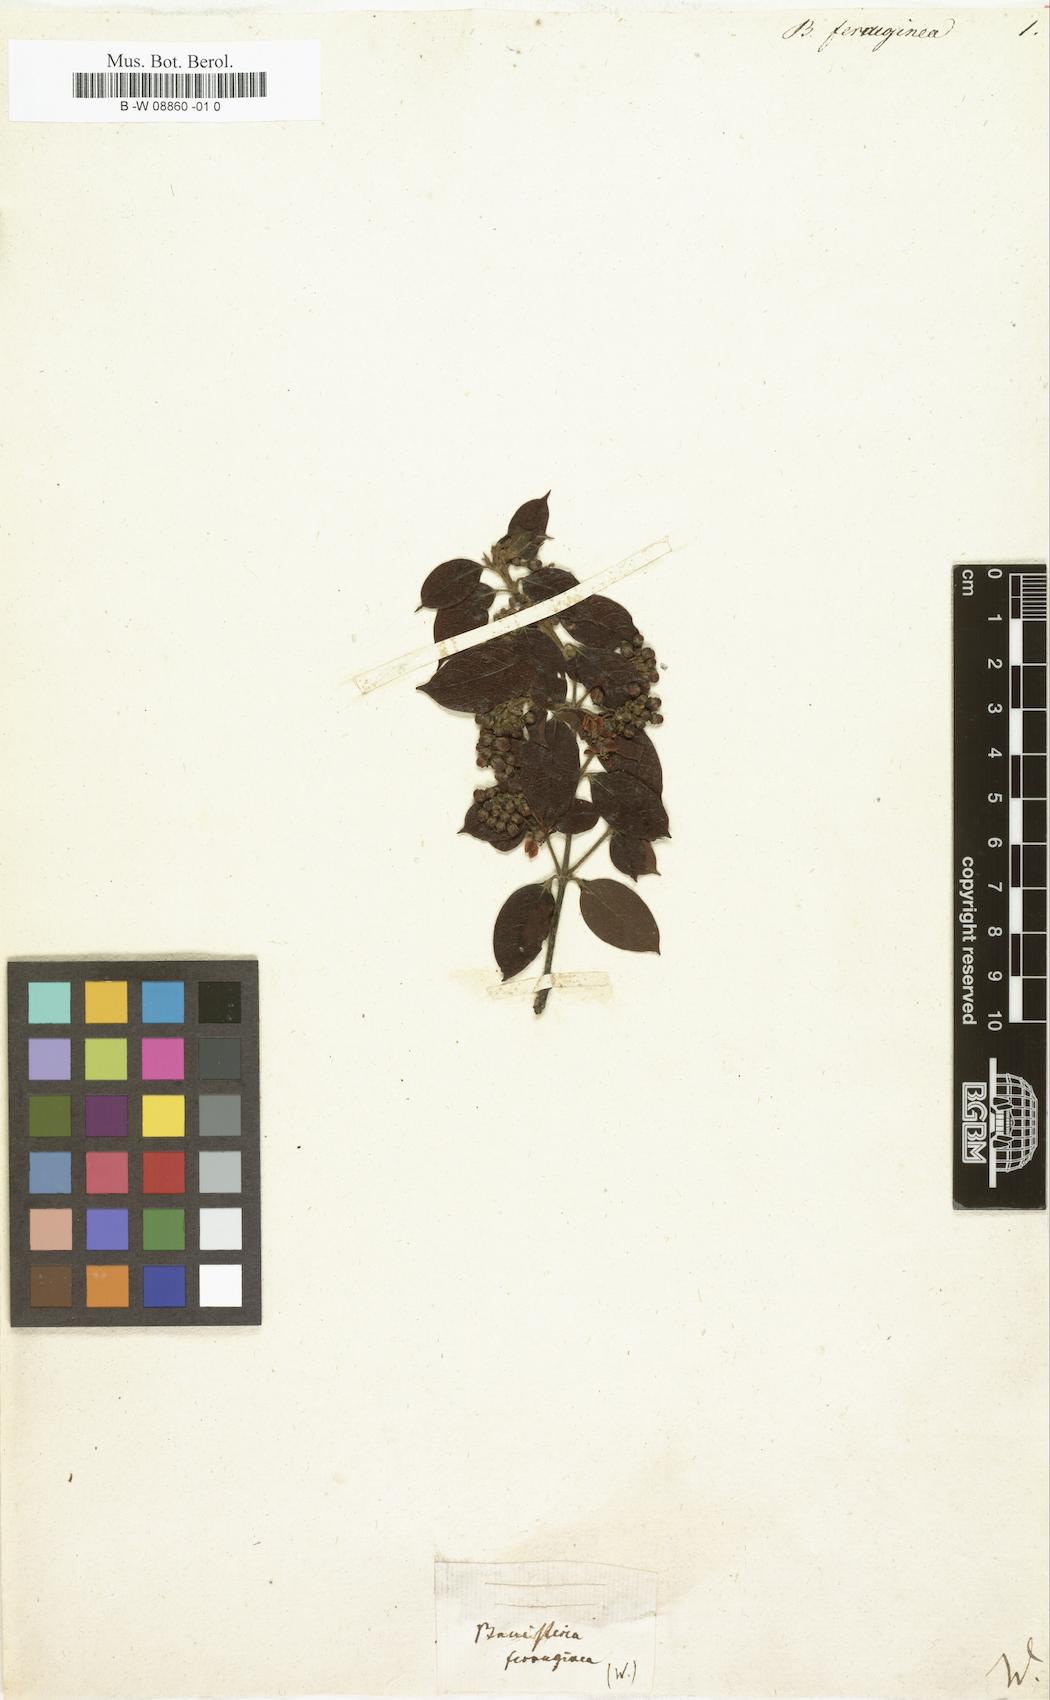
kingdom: Plantae
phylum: Tracheophyta
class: Magnoliopsida
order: Malpighiales
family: Malpighiaceae
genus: Bronwenia
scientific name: Bronwenia ferruginea
